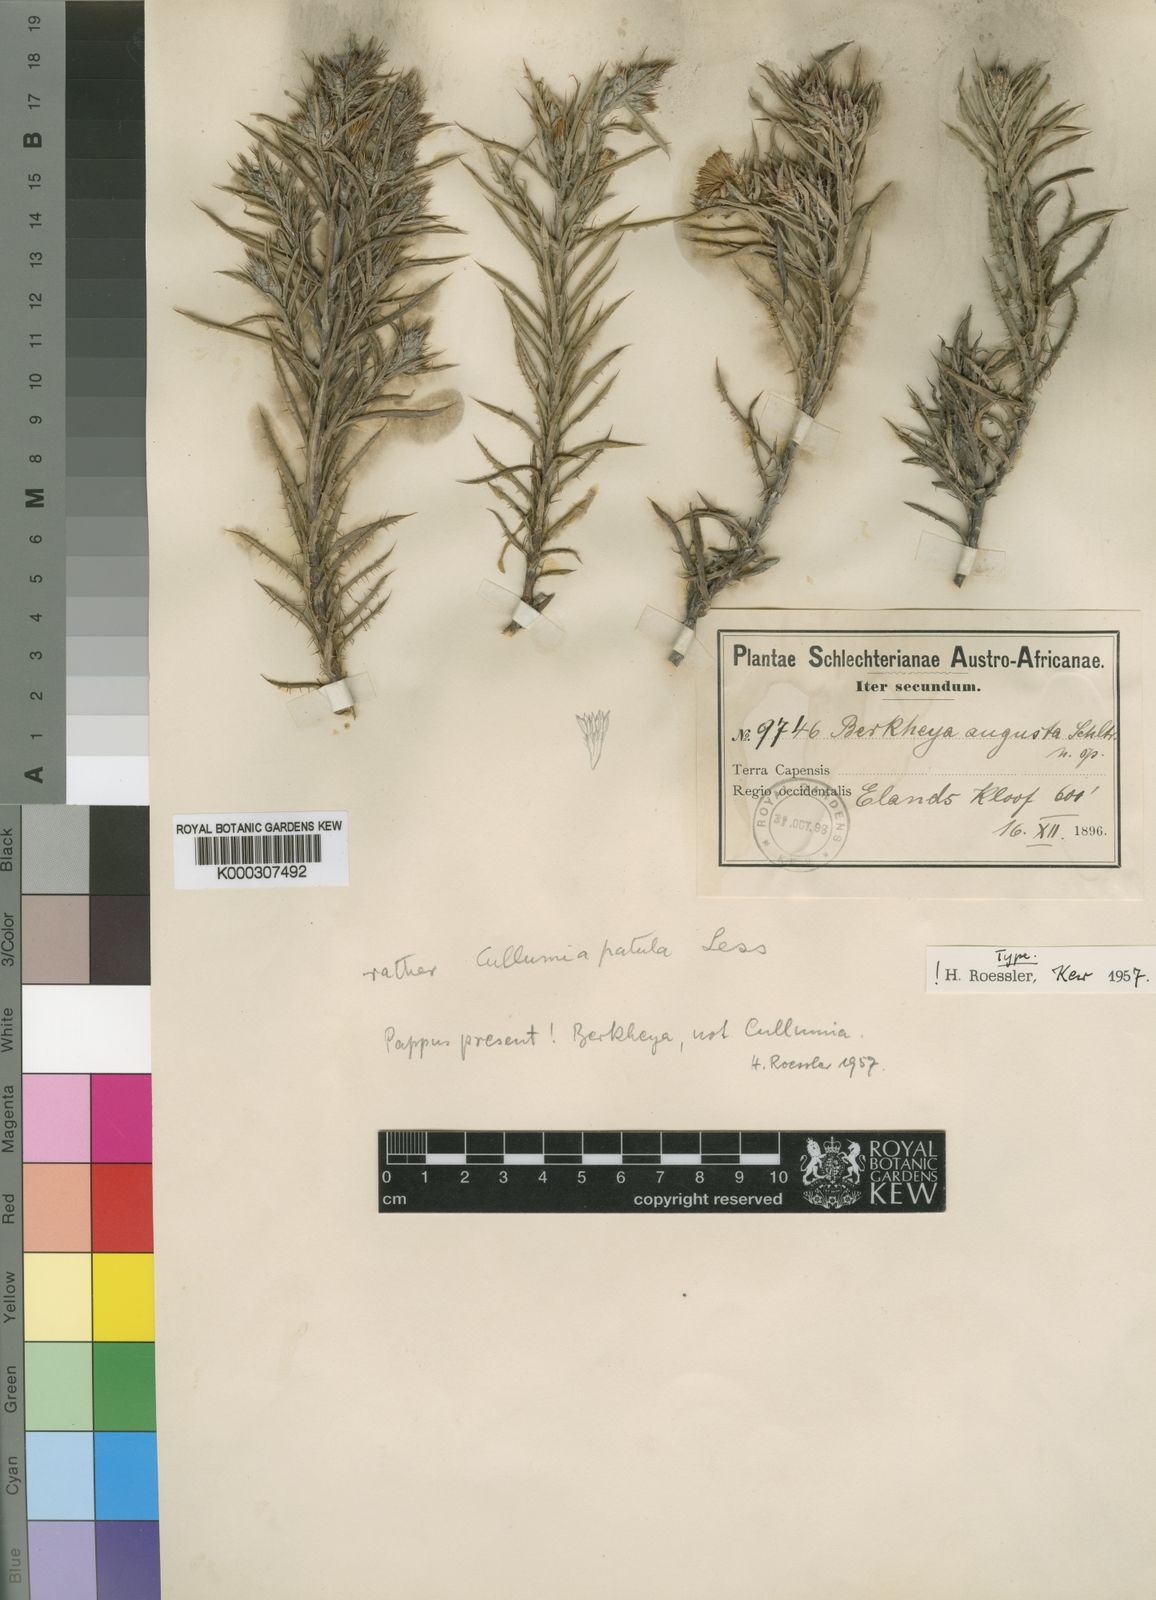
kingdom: Plantae
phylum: Tracheophyta
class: Magnoliopsida
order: Asterales
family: Asteraceae
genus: Berkheya
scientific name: Berkheya angusta
